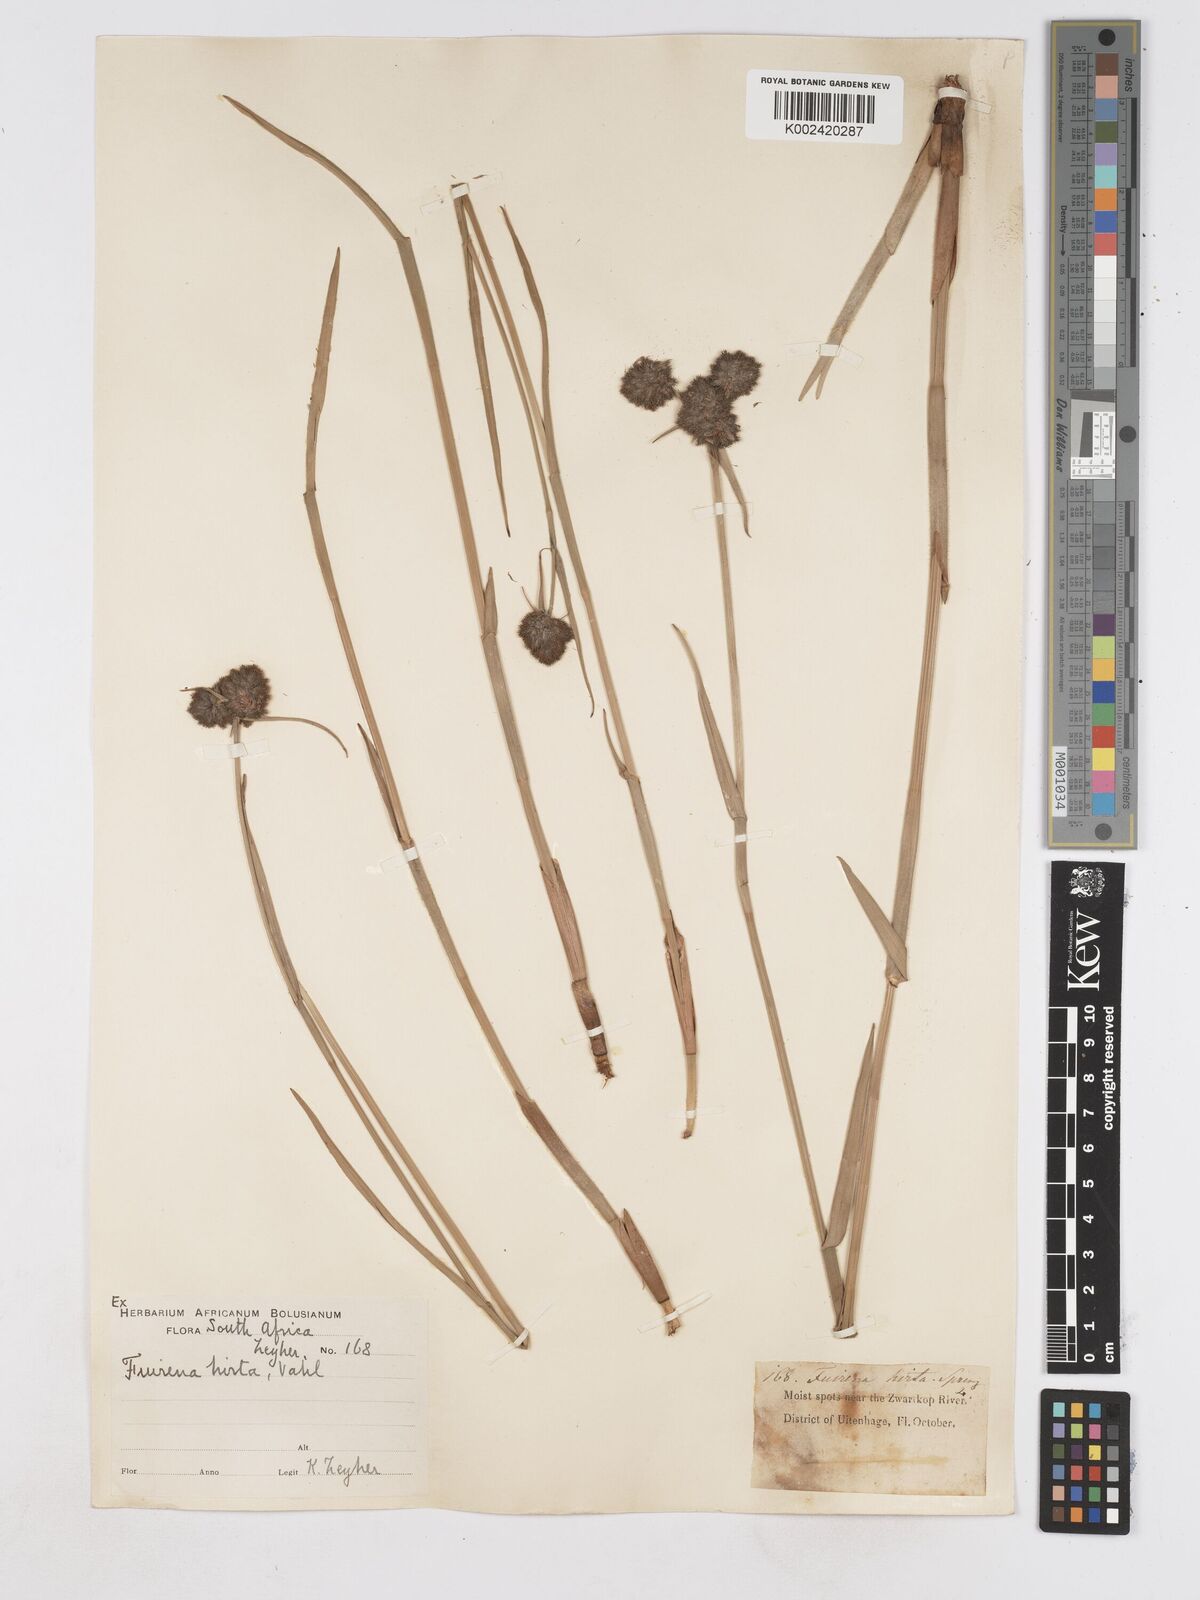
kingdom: Plantae
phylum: Tracheophyta
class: Liliopsida
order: Poales
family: Cyperaceae
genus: Fuirena
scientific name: Fuirena hirsuta
